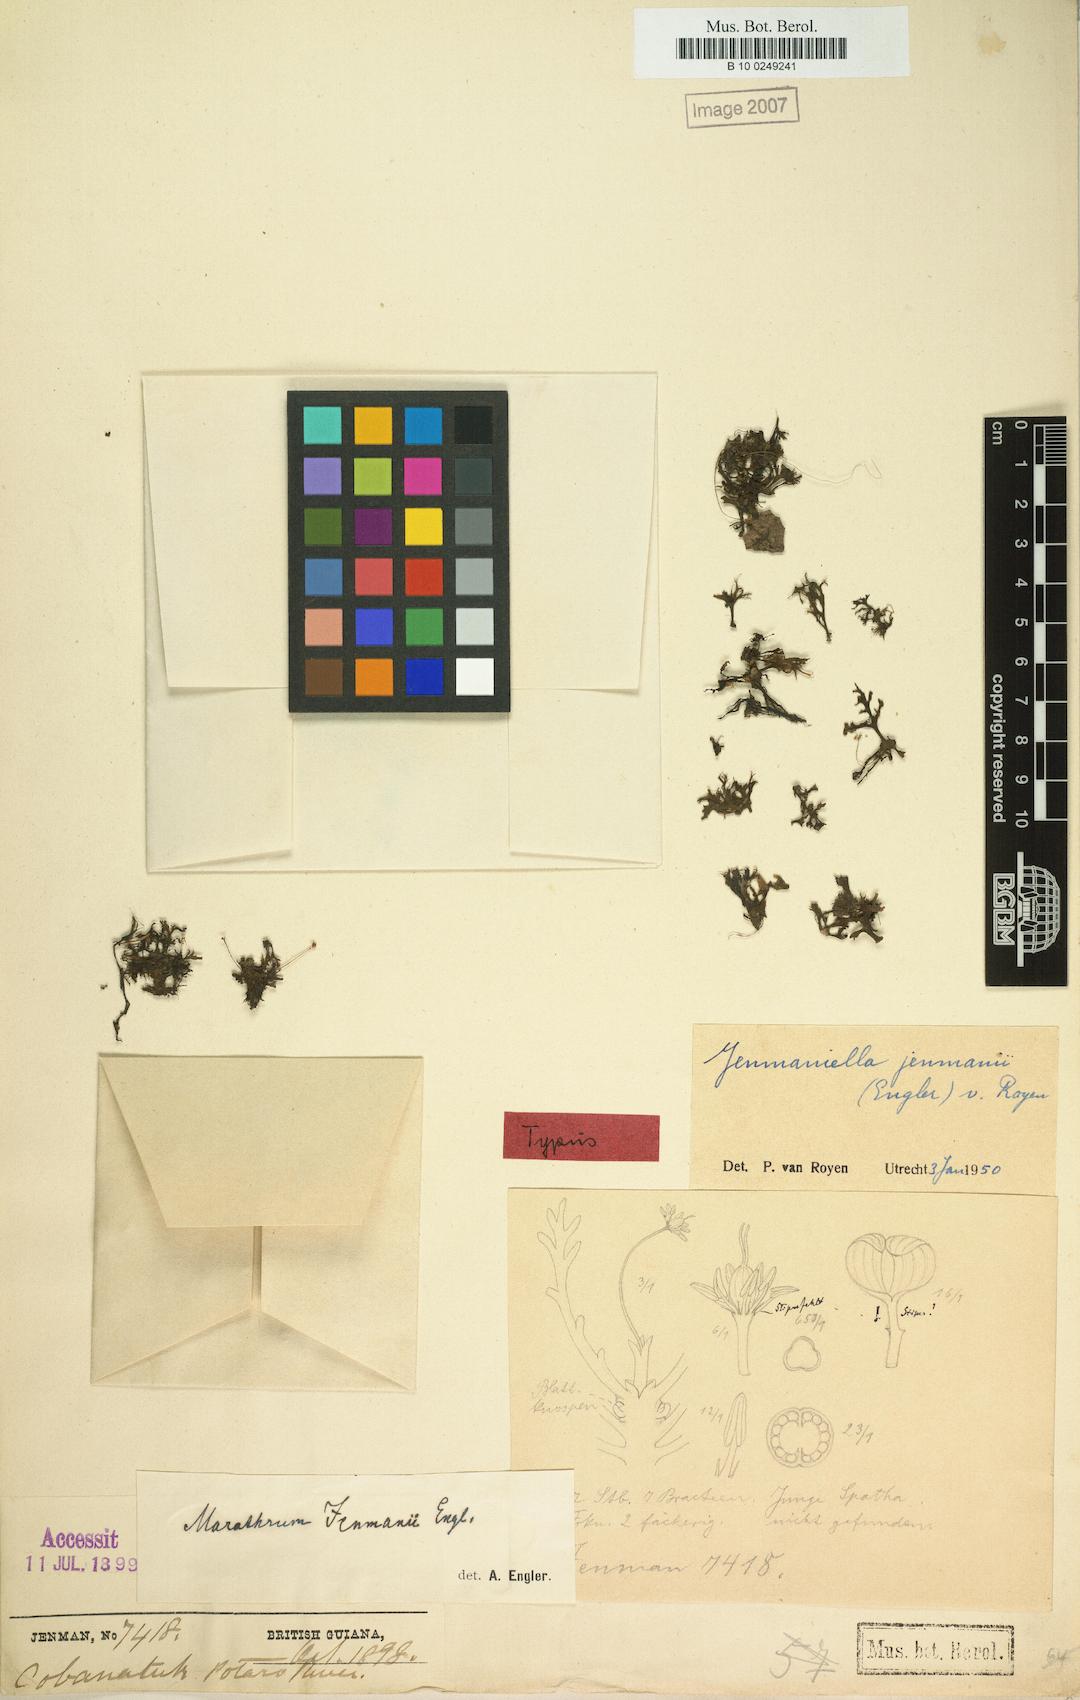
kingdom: Plantae
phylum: Tracheophyta
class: Magnoliopsida
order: Malpighiales
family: Podostemaceae
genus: Lophogyne
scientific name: Lophogyne tridactylitifolia
